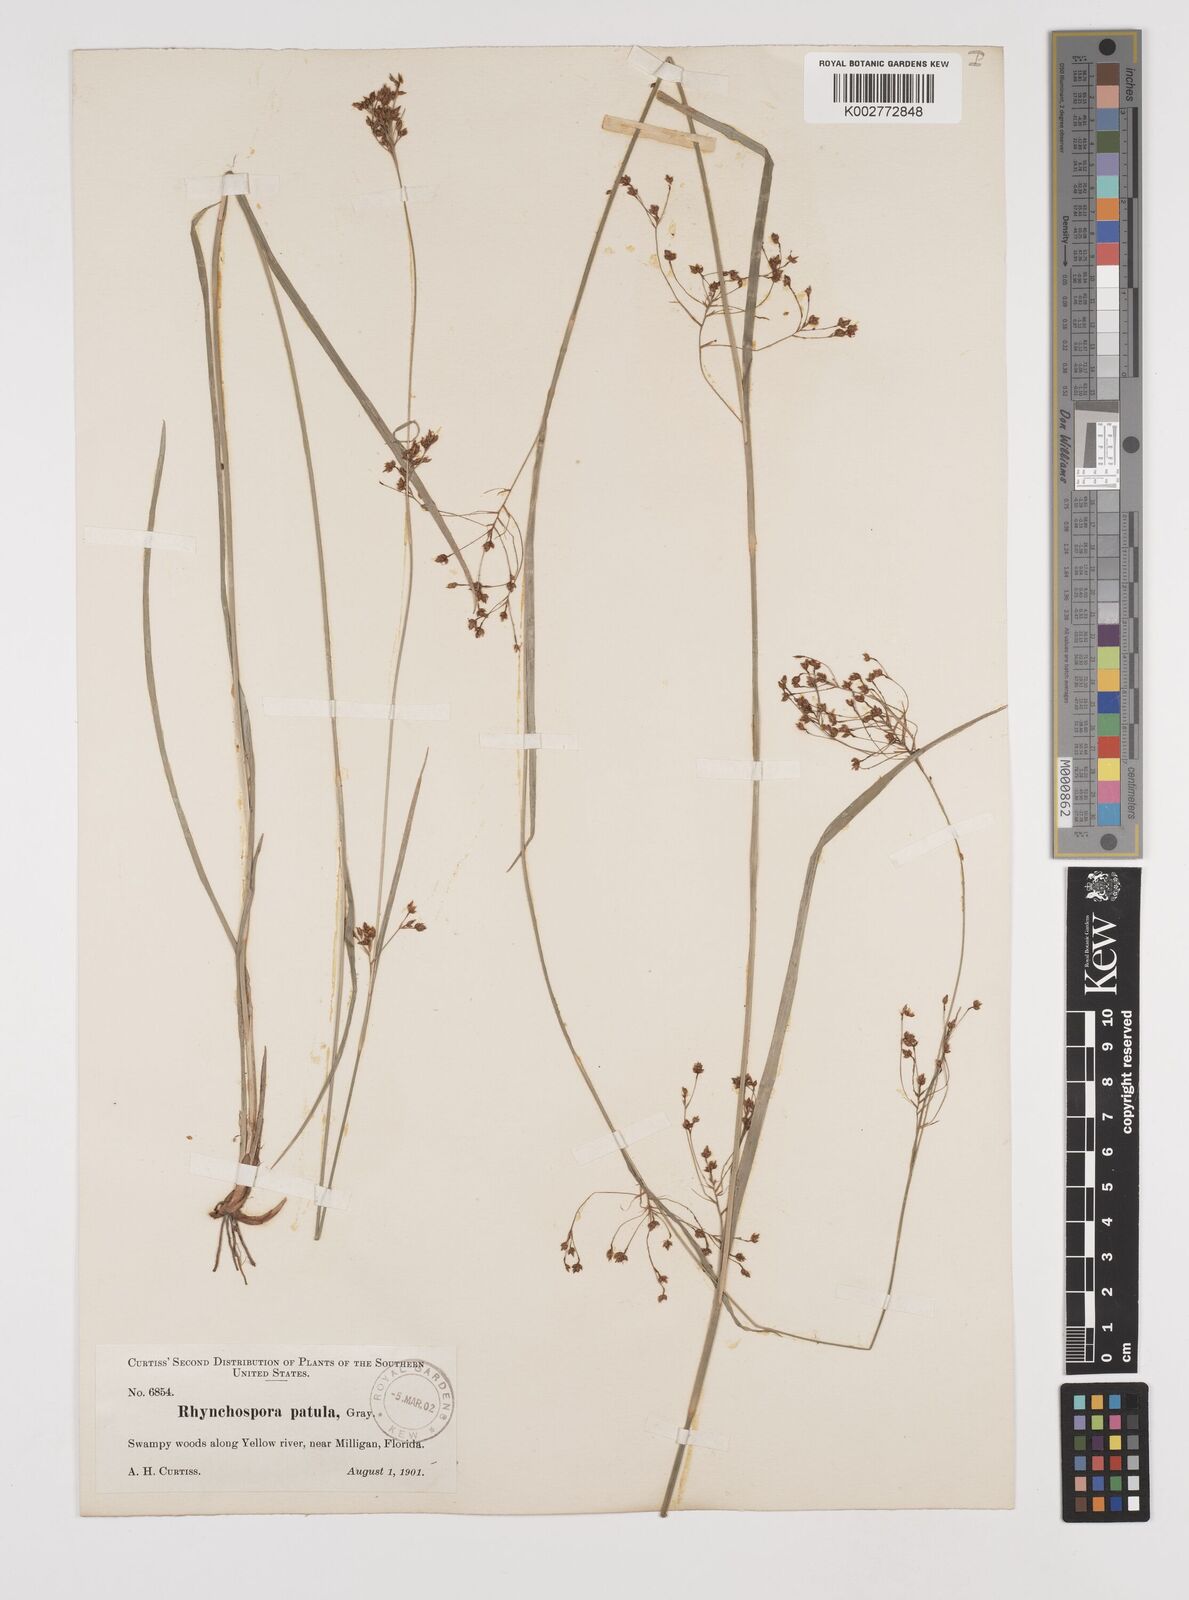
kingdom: Plantae
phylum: Tracheophyta
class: Liliopsida
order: Poales
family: Cyperaceae
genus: Rhynchospora
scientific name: Rhynchospora caduca
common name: Anglestem beaksedge
